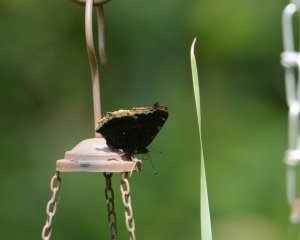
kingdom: Animalia
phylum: Arthropoda
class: Insecta
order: Lepidoptera
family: Nymphalidae
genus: Nymphalis
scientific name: Nymphalis antiopa
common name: Mourning Cloak
